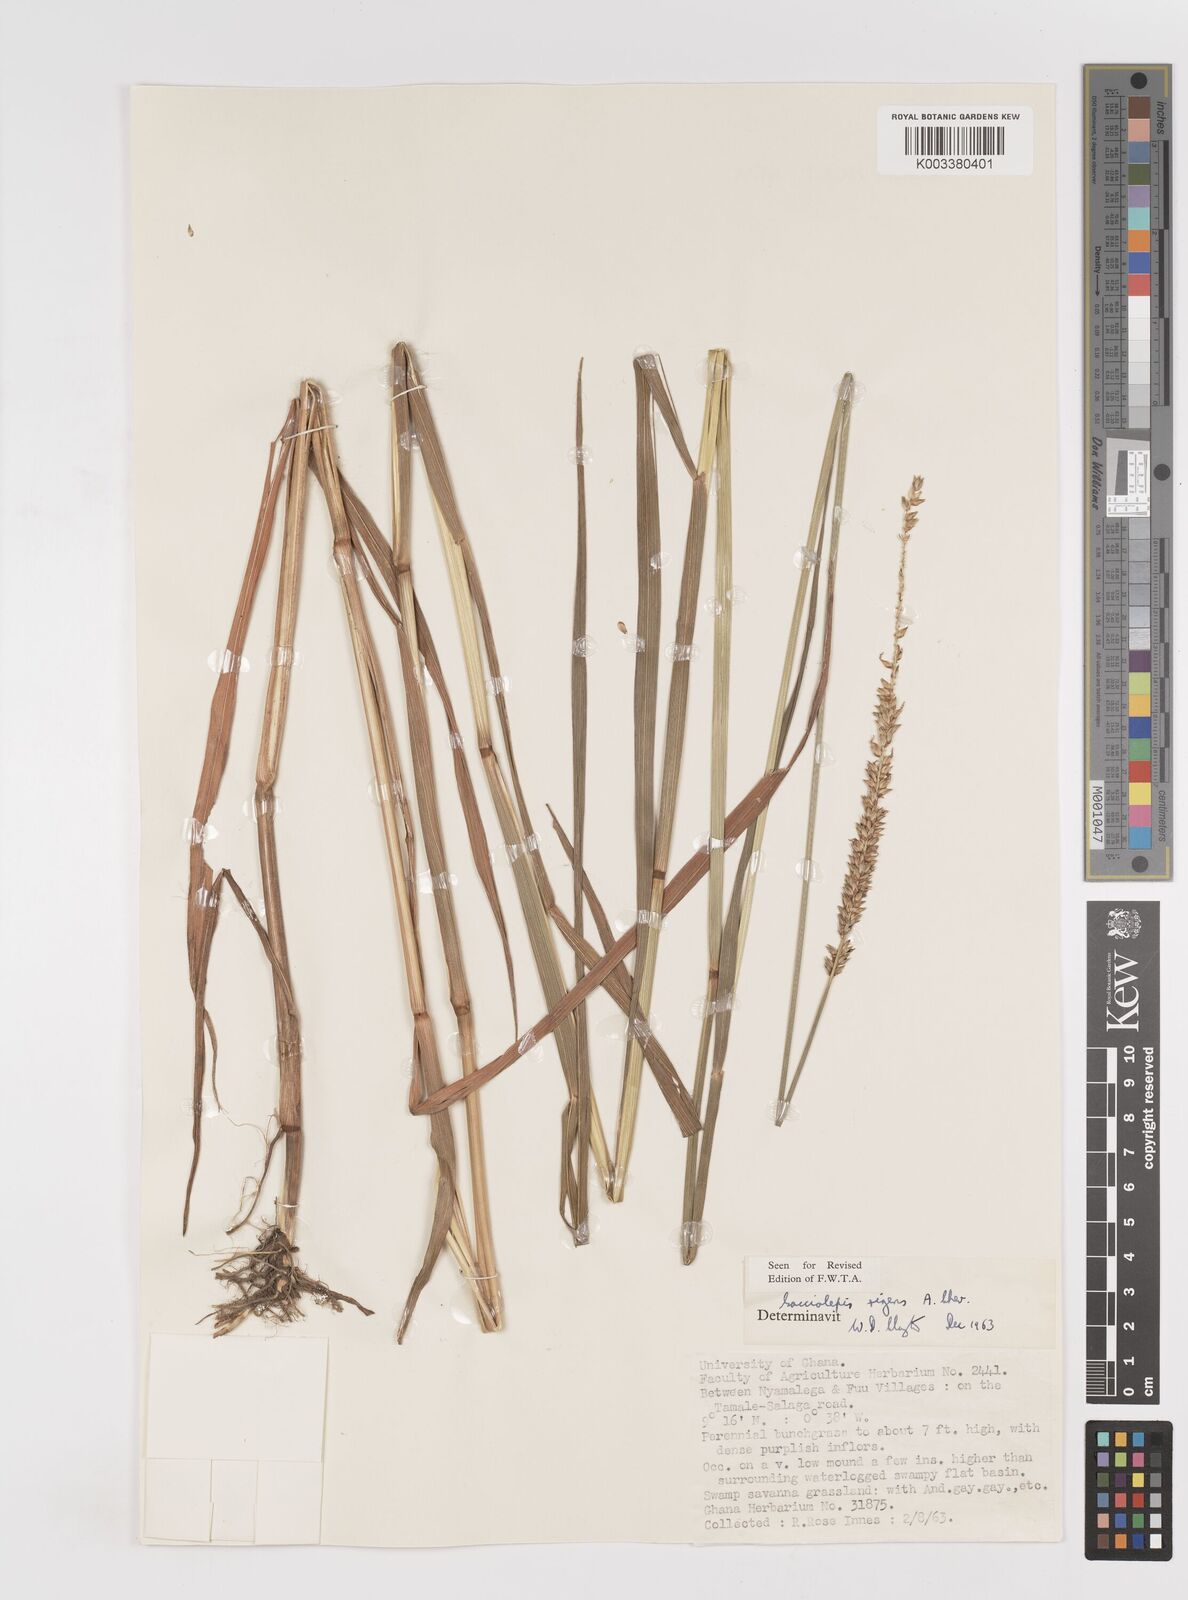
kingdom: Plantae
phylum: Tracheophyta
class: Liliopsida
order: Poales
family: Poaceae
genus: Sacciolepis
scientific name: Sacciolepis leptorrhachis
